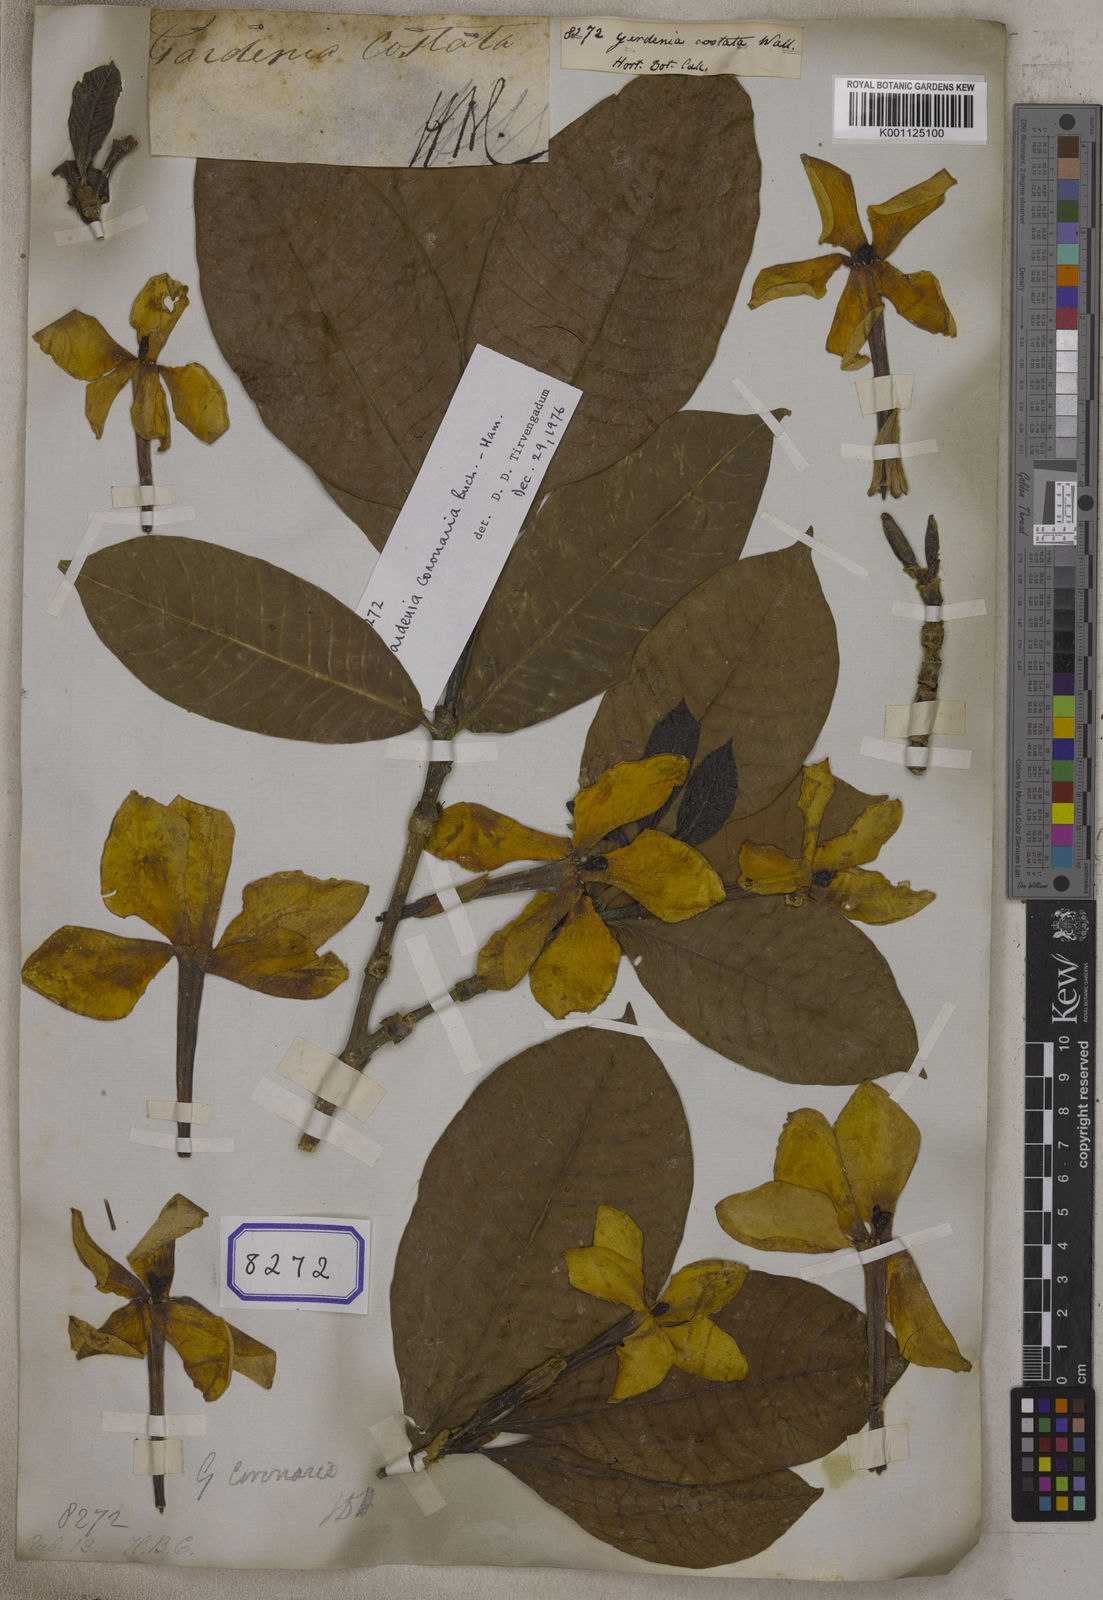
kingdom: Plantae
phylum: Tracheophyta
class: Magnoliopsida
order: Gentianales
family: Rubiaceae
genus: Gardenia
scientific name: Gardenia
